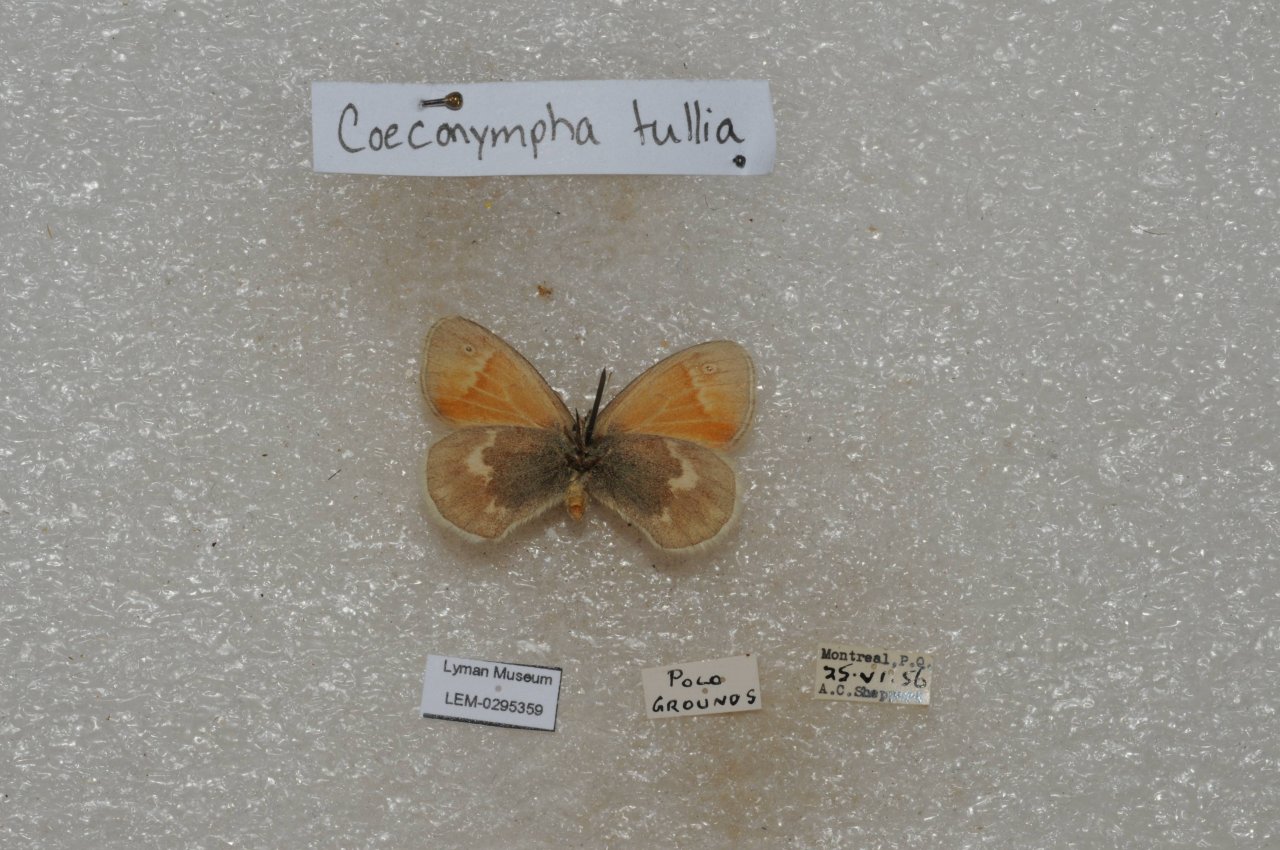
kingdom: Animalia
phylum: Arthropoda
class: Insecta
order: Lepidoptera
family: Nymphalidae
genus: Coenonympha
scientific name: Coenonympha tullia
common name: Large Heath
